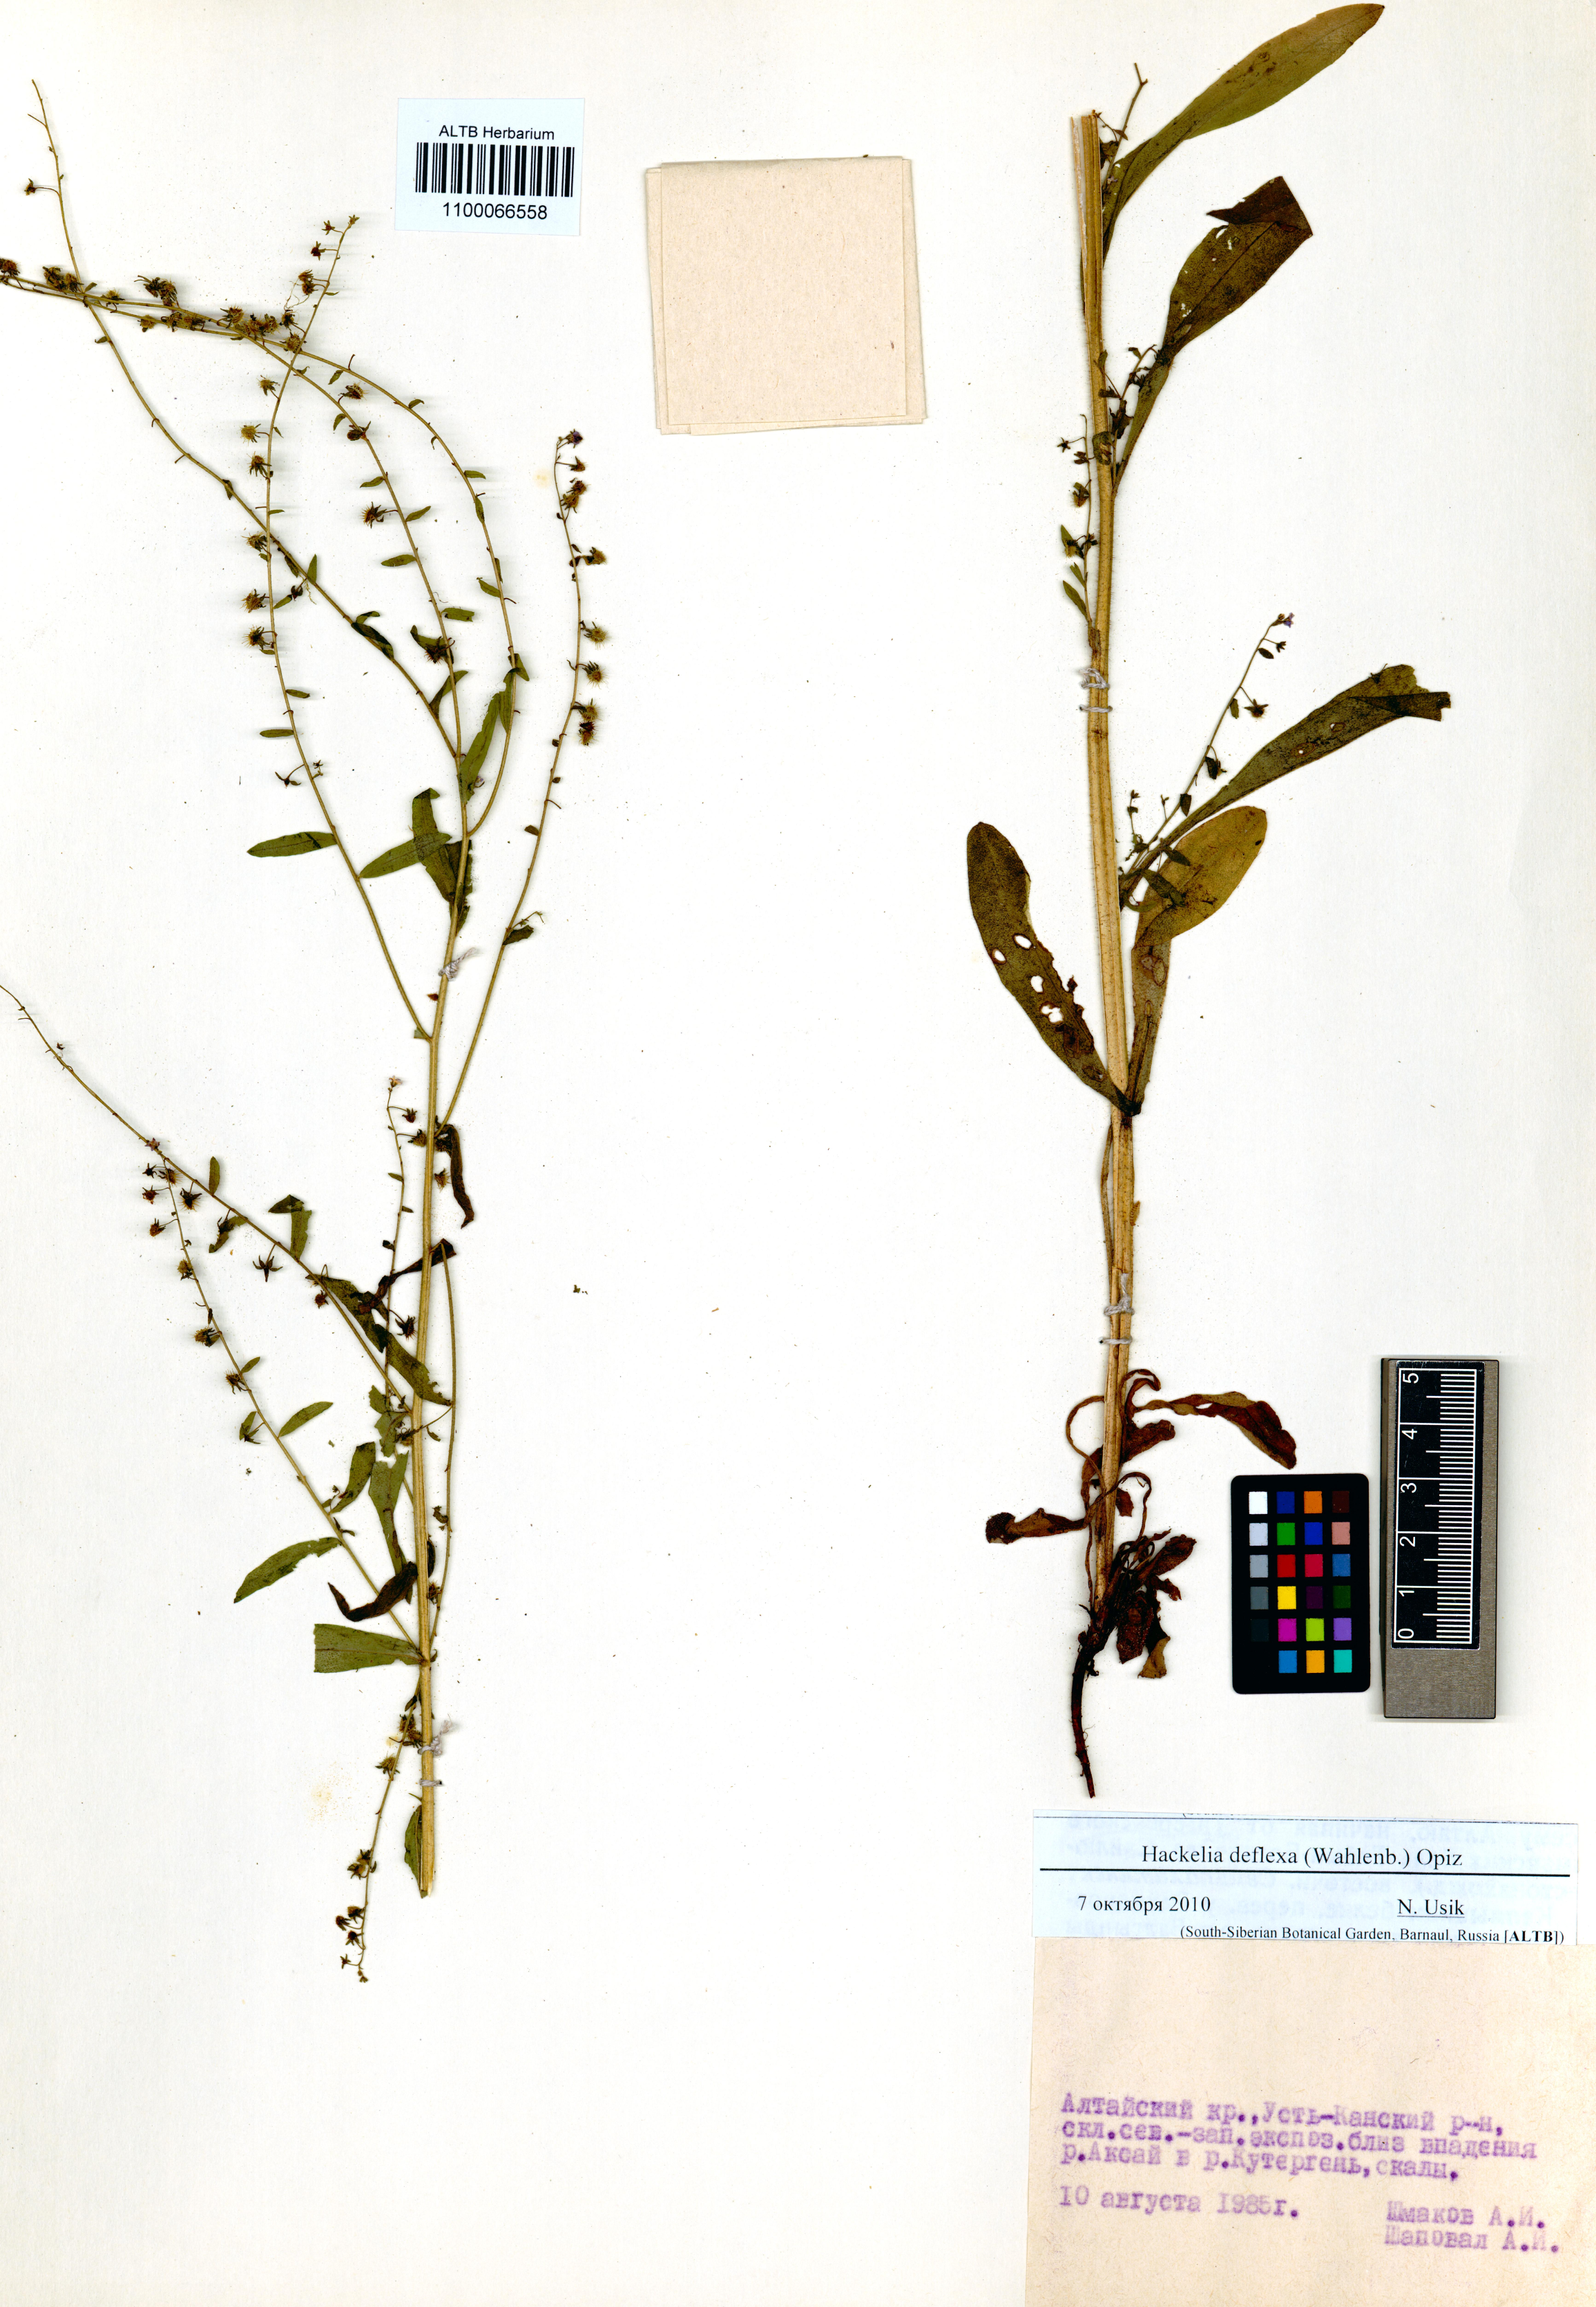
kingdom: Plantae
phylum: Tracheophyta
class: Magnoliopsida
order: Boraginales
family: Boraginaceae
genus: Hackelia
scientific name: Hackelia deflexa
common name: Nodding stickseed
